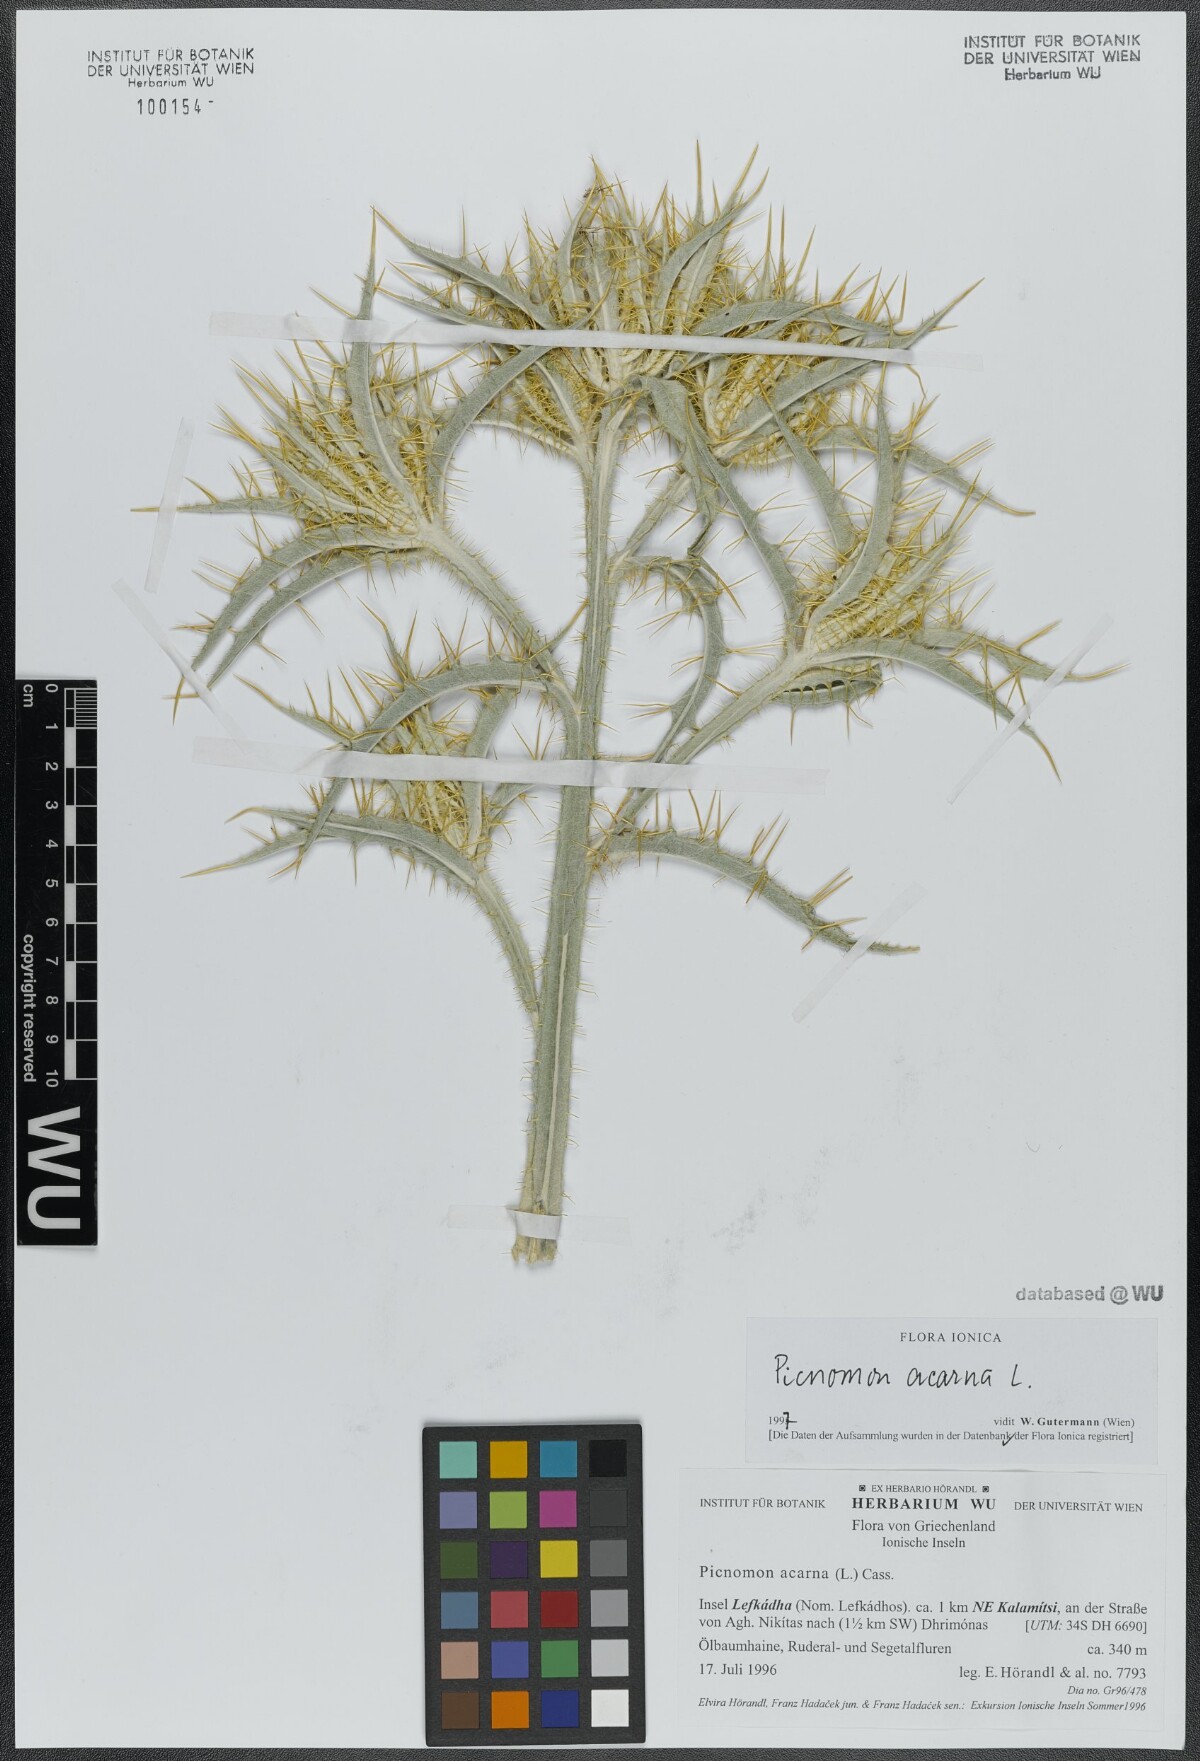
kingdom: Plantae
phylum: Tracheophyta
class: Magnoliopsida
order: Asterales
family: Asteraceae
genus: Picnomon
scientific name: Picnomon acarna
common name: Soldier thistle
